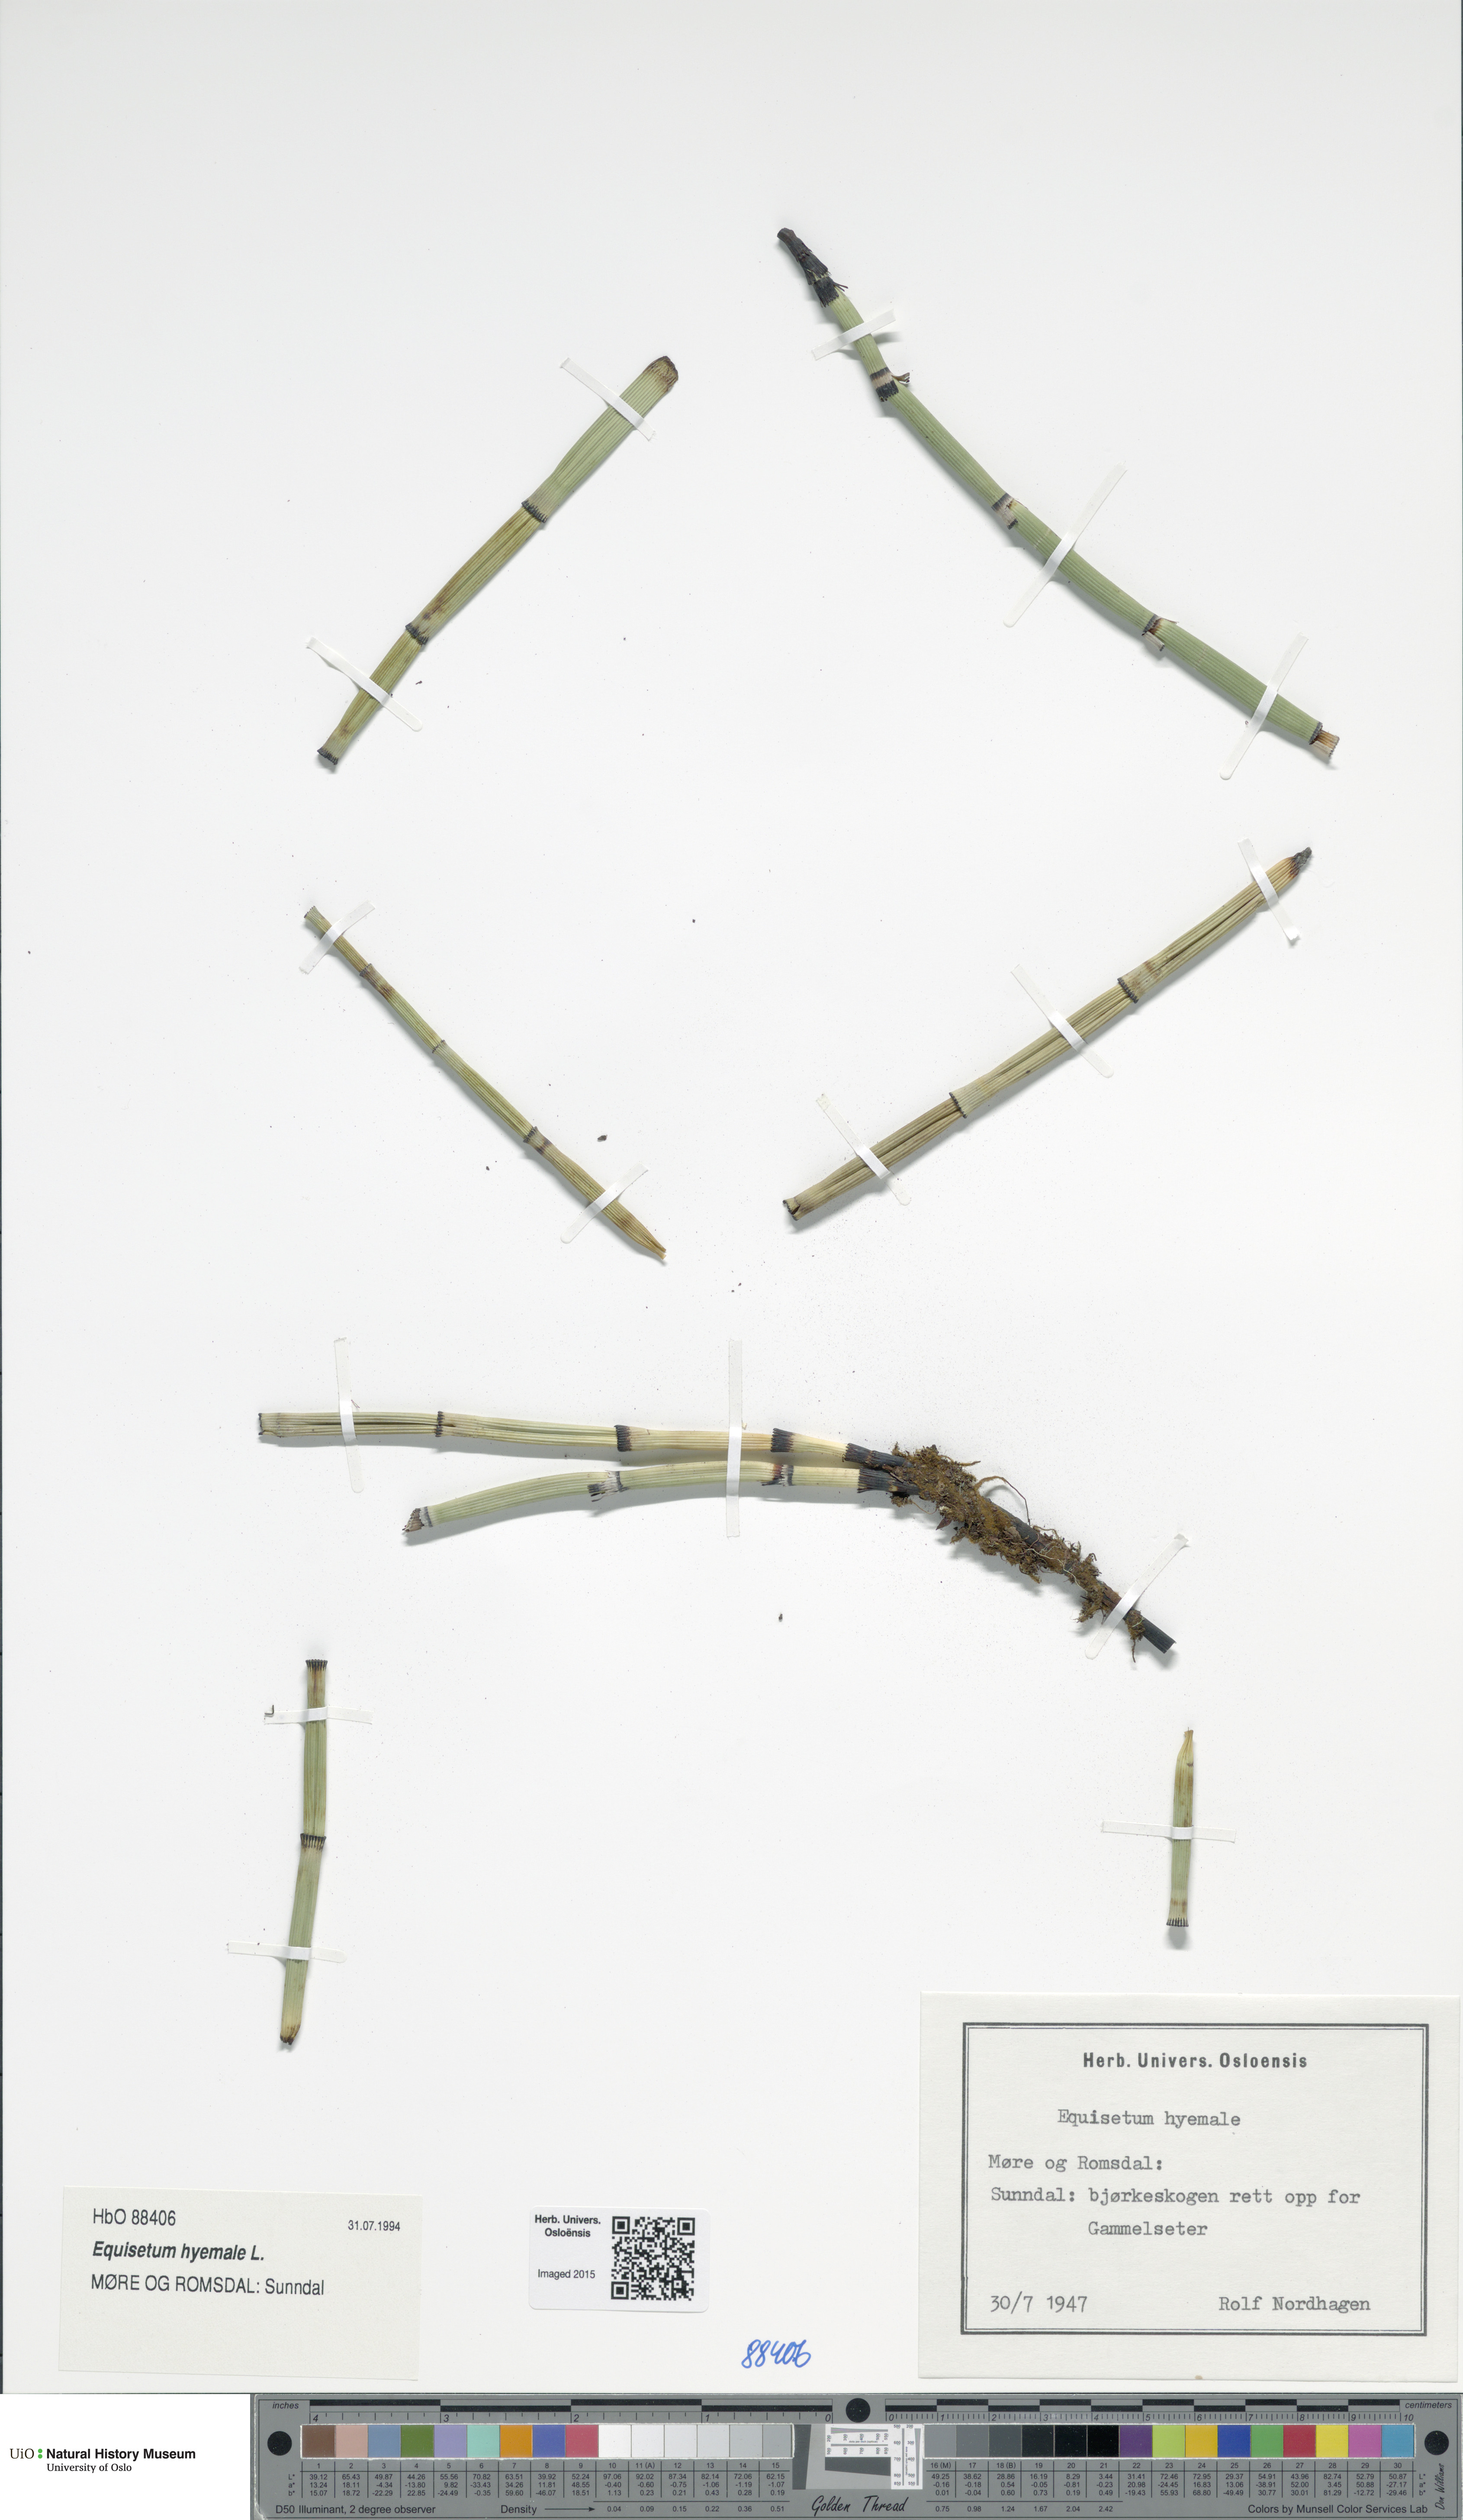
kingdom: Plantae
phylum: Tracheophyta
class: Polypodiopsida
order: Equisetales
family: Equisetaceae
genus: Equisetum
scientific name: Equisetum hyemale
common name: Rough horsetail
